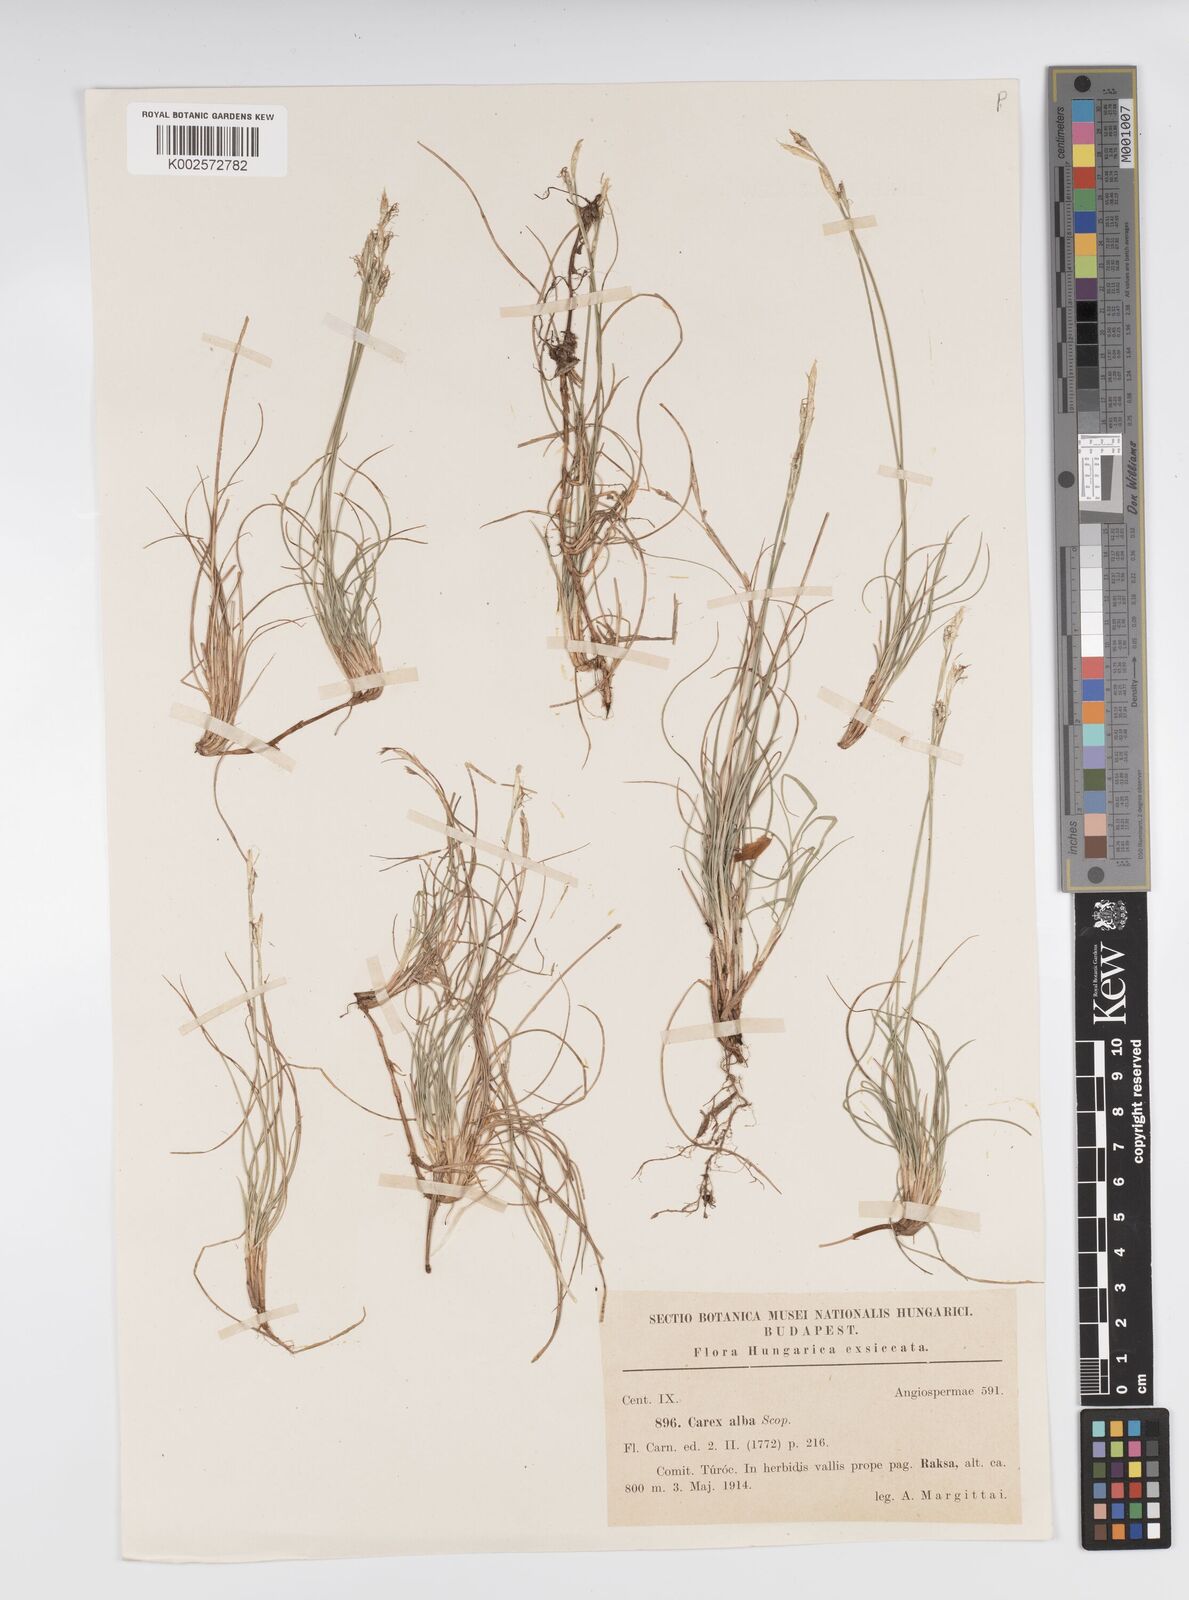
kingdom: Plantae
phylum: Tracheophyta
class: Liliopsida
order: Poales
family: Cyperaceae
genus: Carex
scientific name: Carex alba
